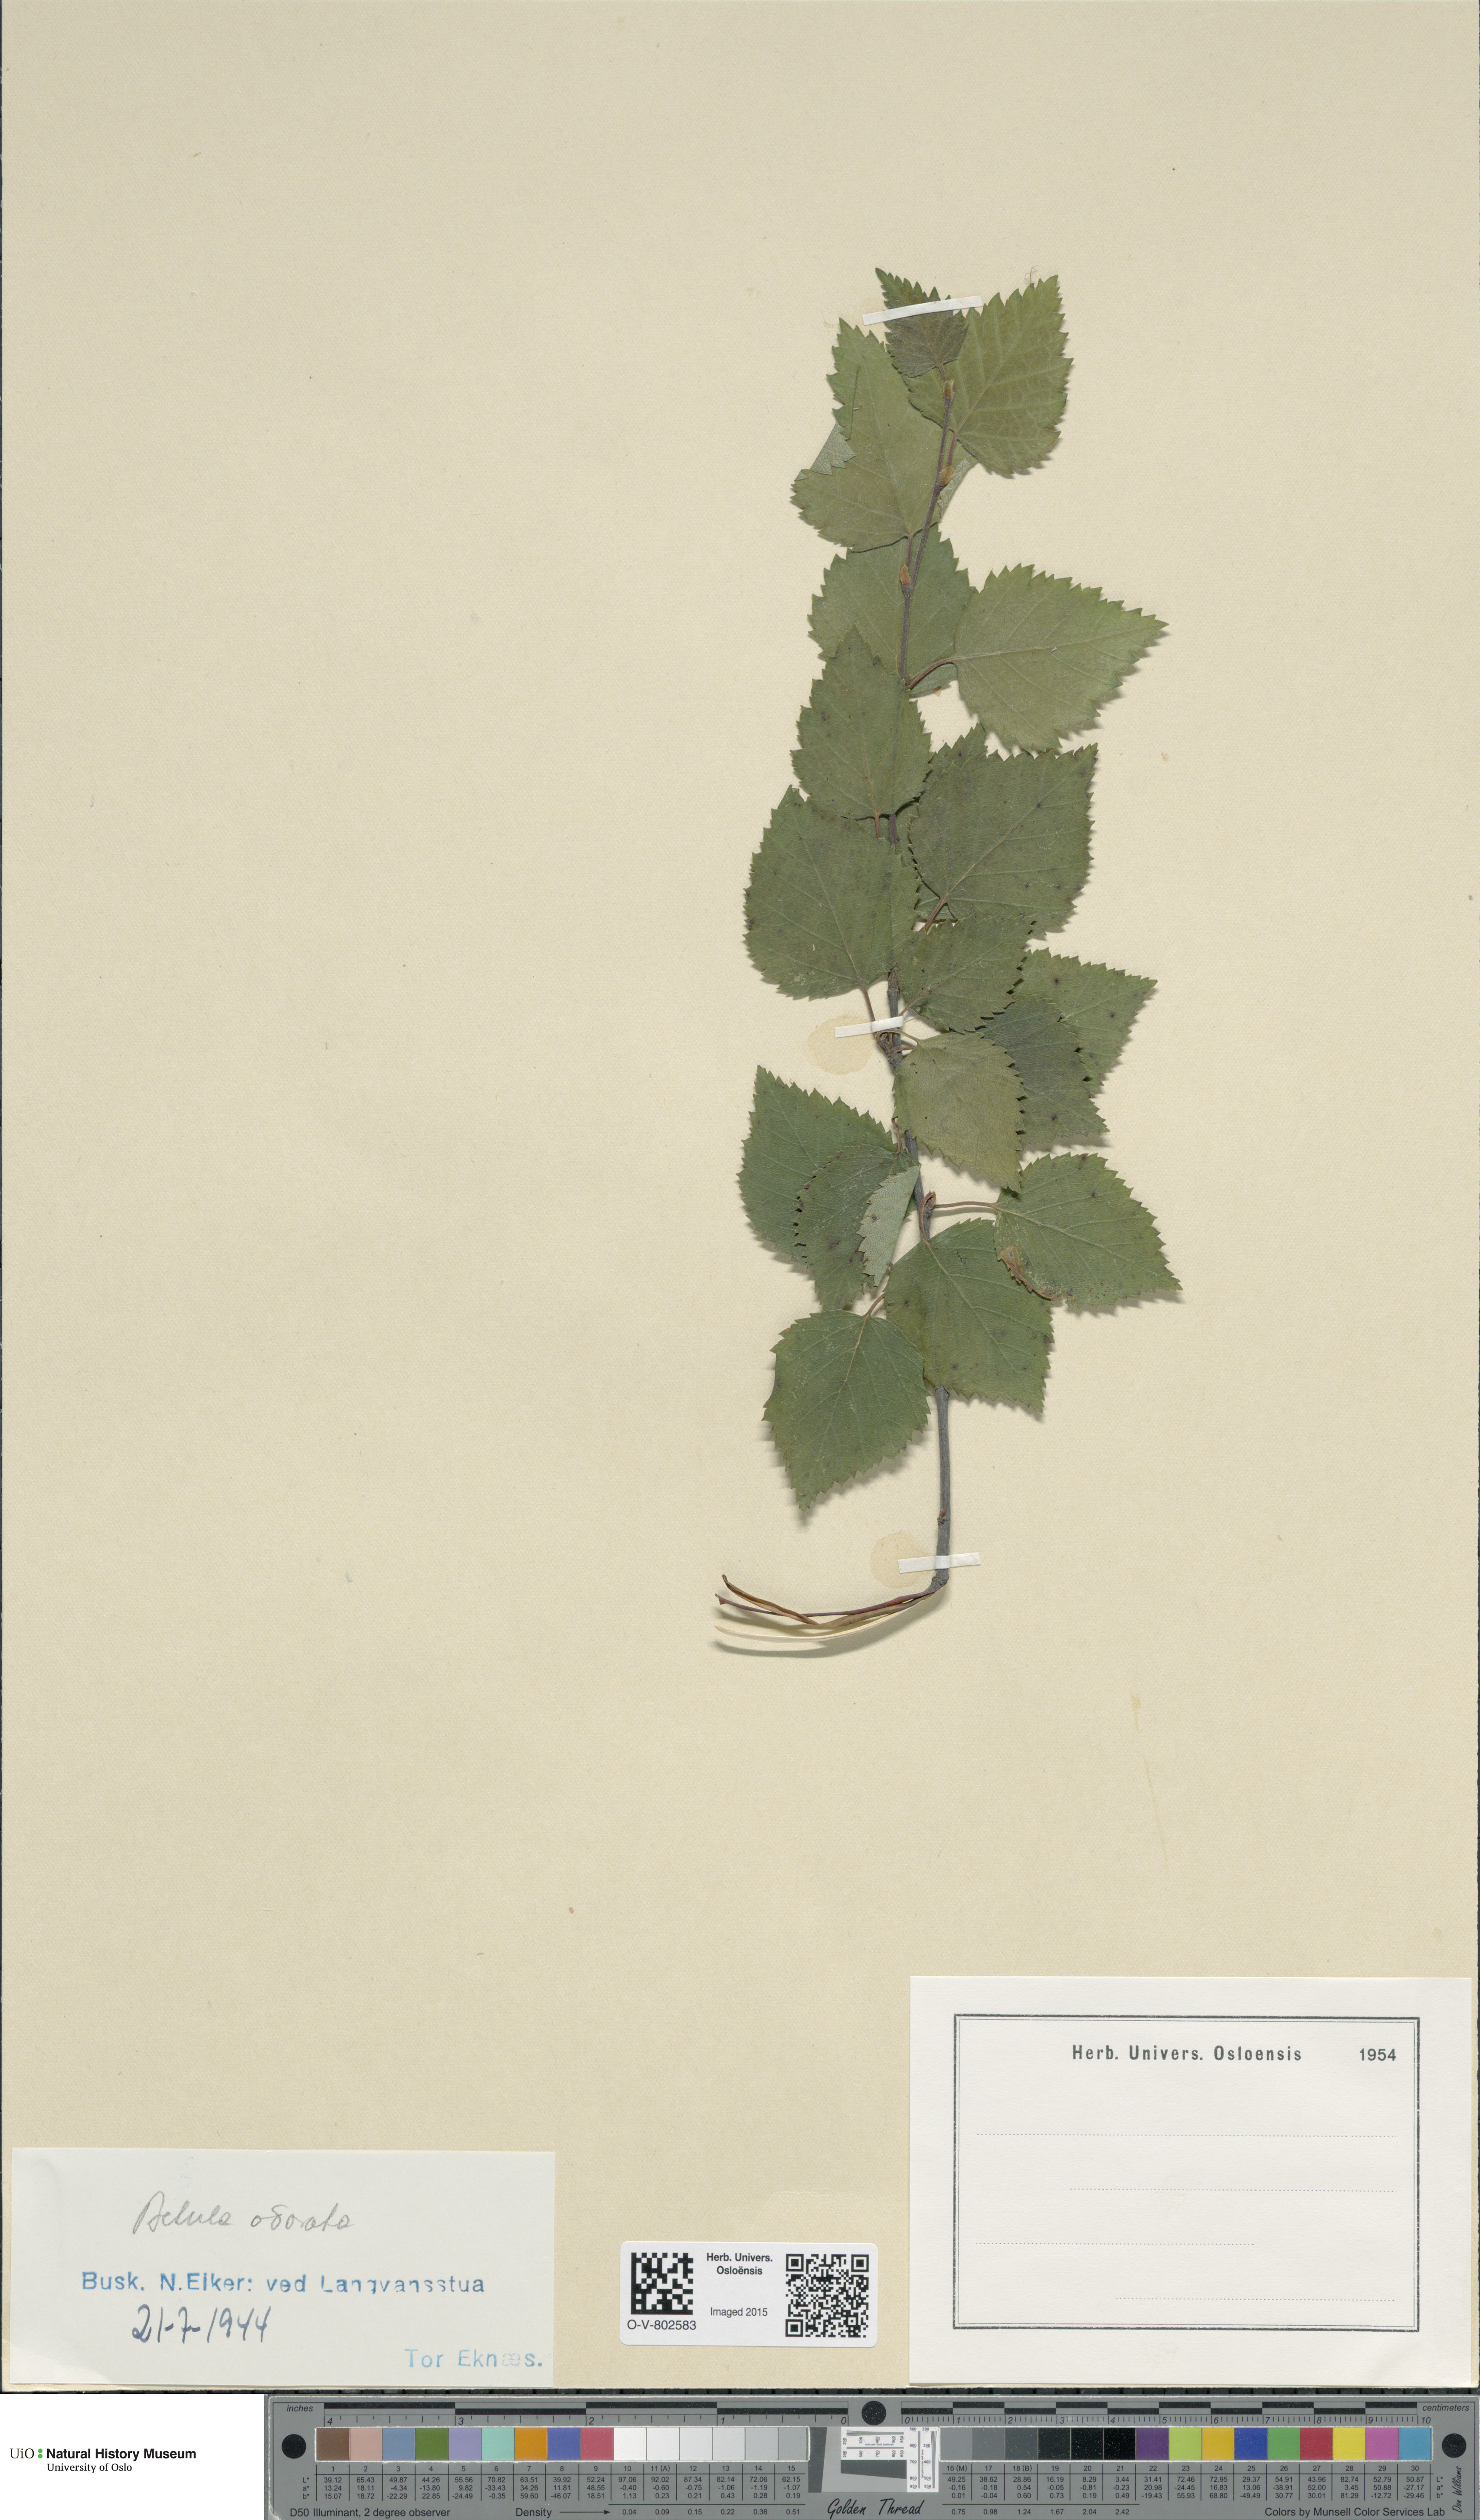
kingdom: Plantae
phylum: Tracheophyta
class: Magnoliopsida
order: Fagales
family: Betulaceae
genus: Betula
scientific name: Betula pubescens
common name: Downy birch
